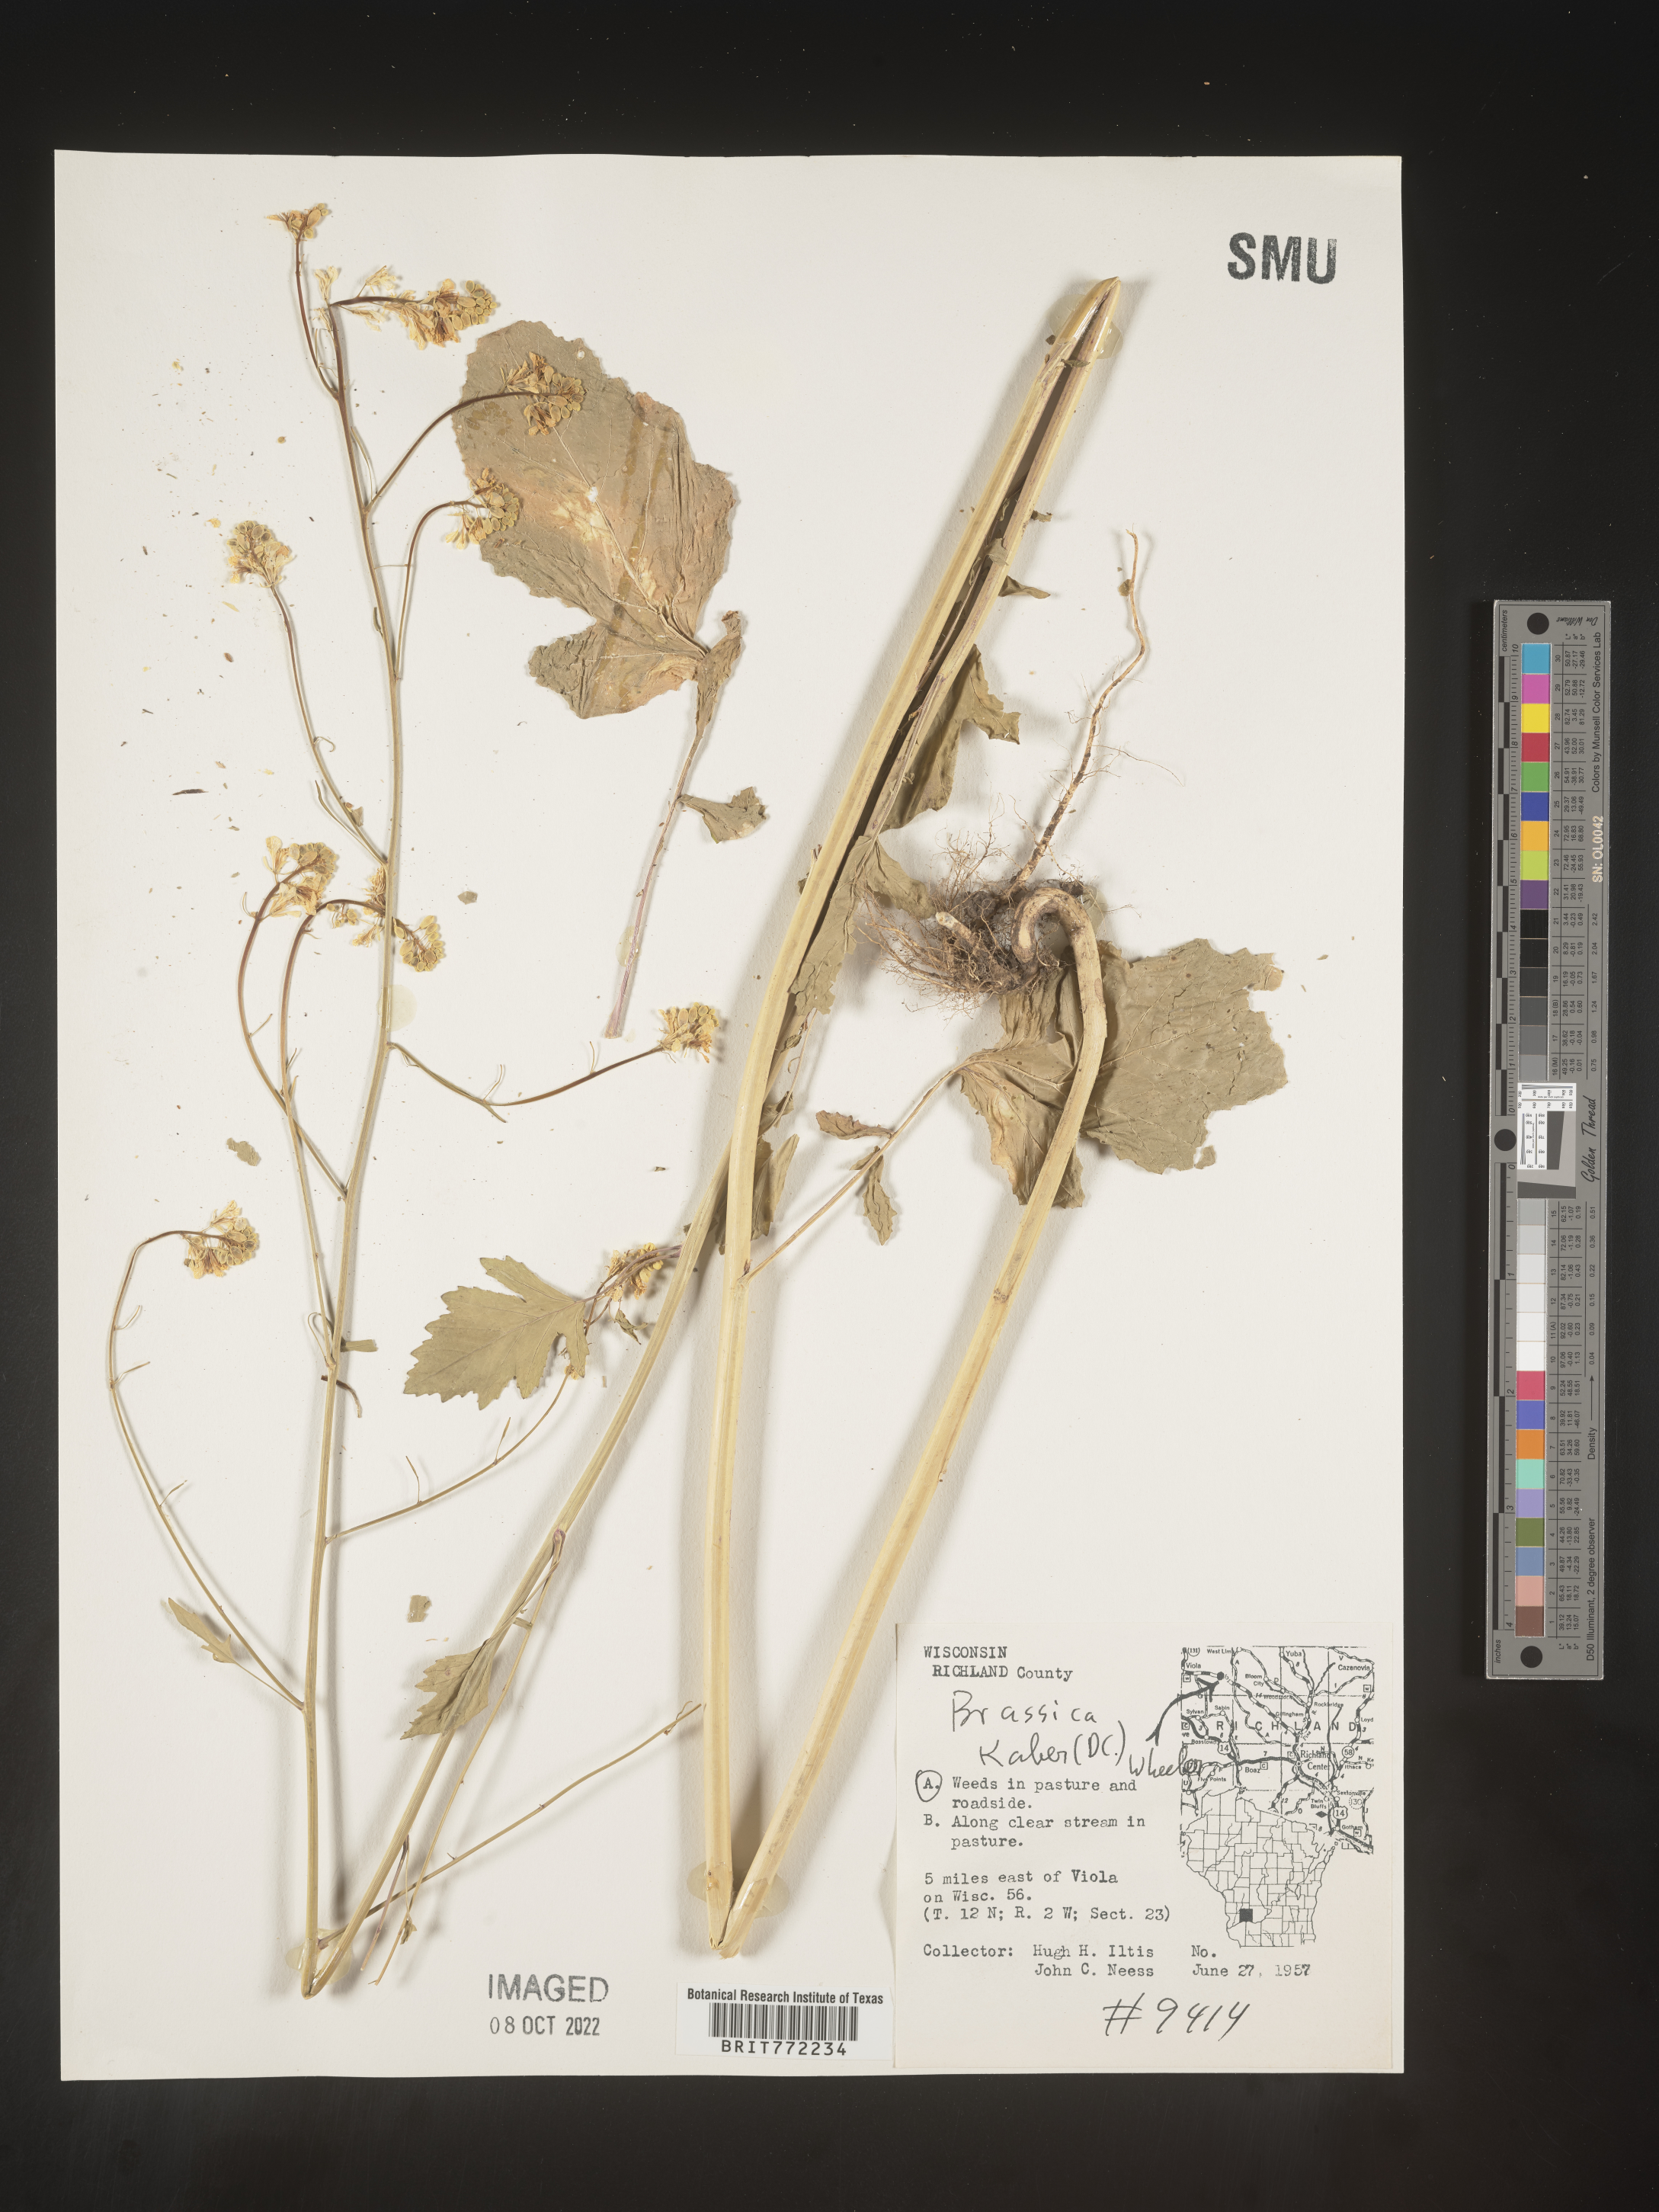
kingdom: Plantae
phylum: Tracheophyta
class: Magnoliopsida
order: Brassicales
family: Brassicaceae
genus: Sinapis
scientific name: Sinapis arvensis
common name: Charlock
